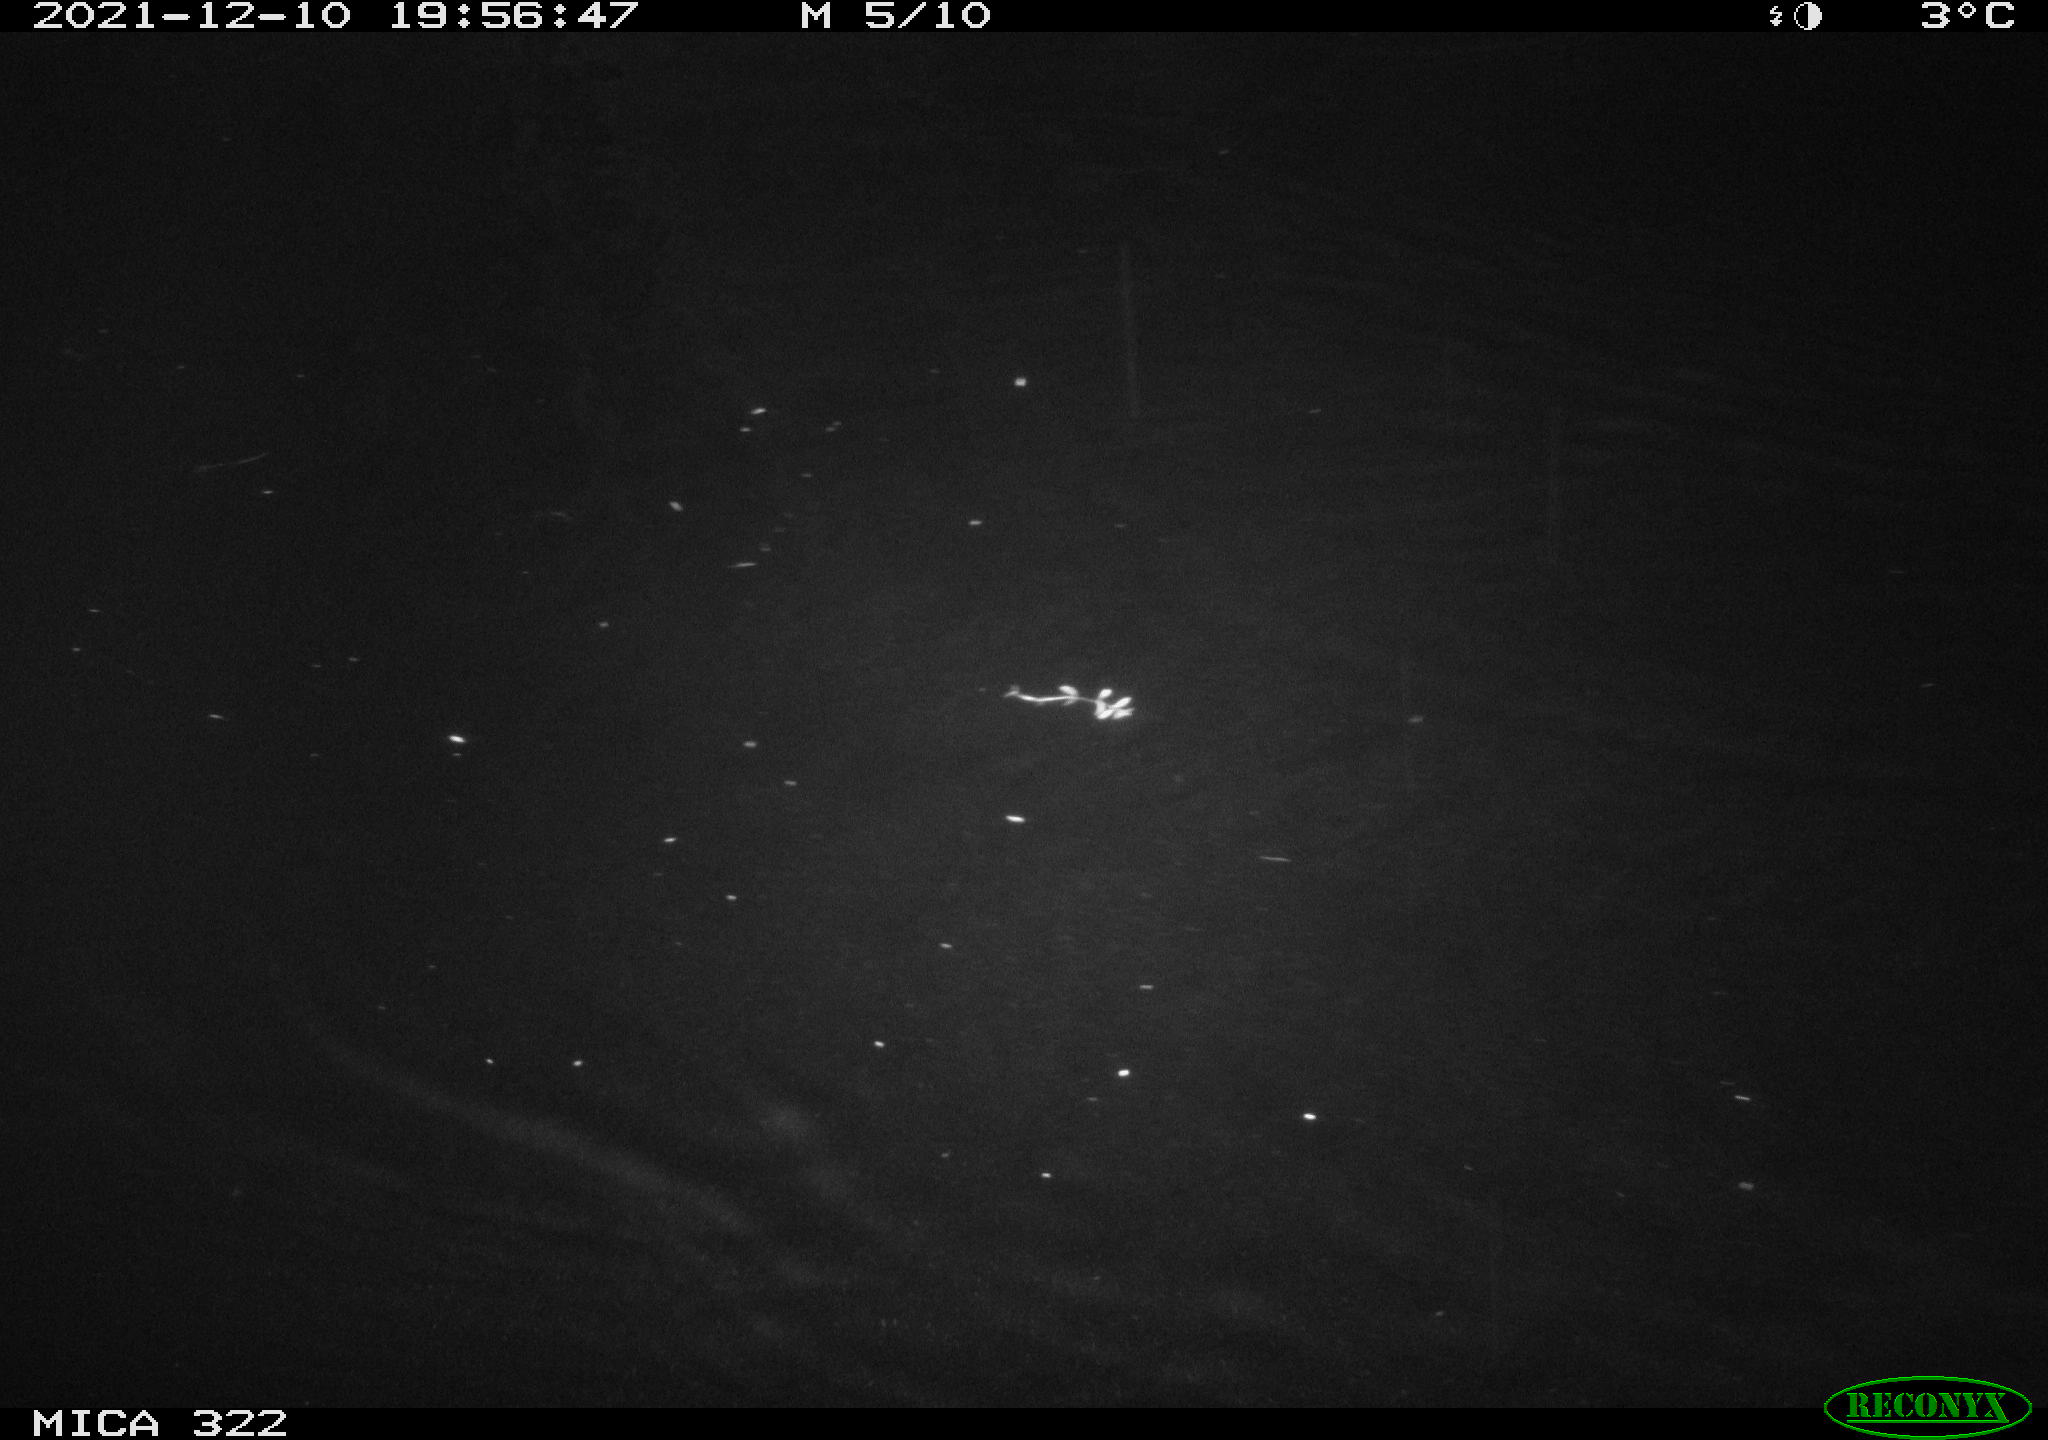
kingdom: Animalia
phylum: Chordata
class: Mammalia
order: Rodentia
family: Muridae
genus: Rattus
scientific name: Rattus norvegicus
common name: Brown rat
